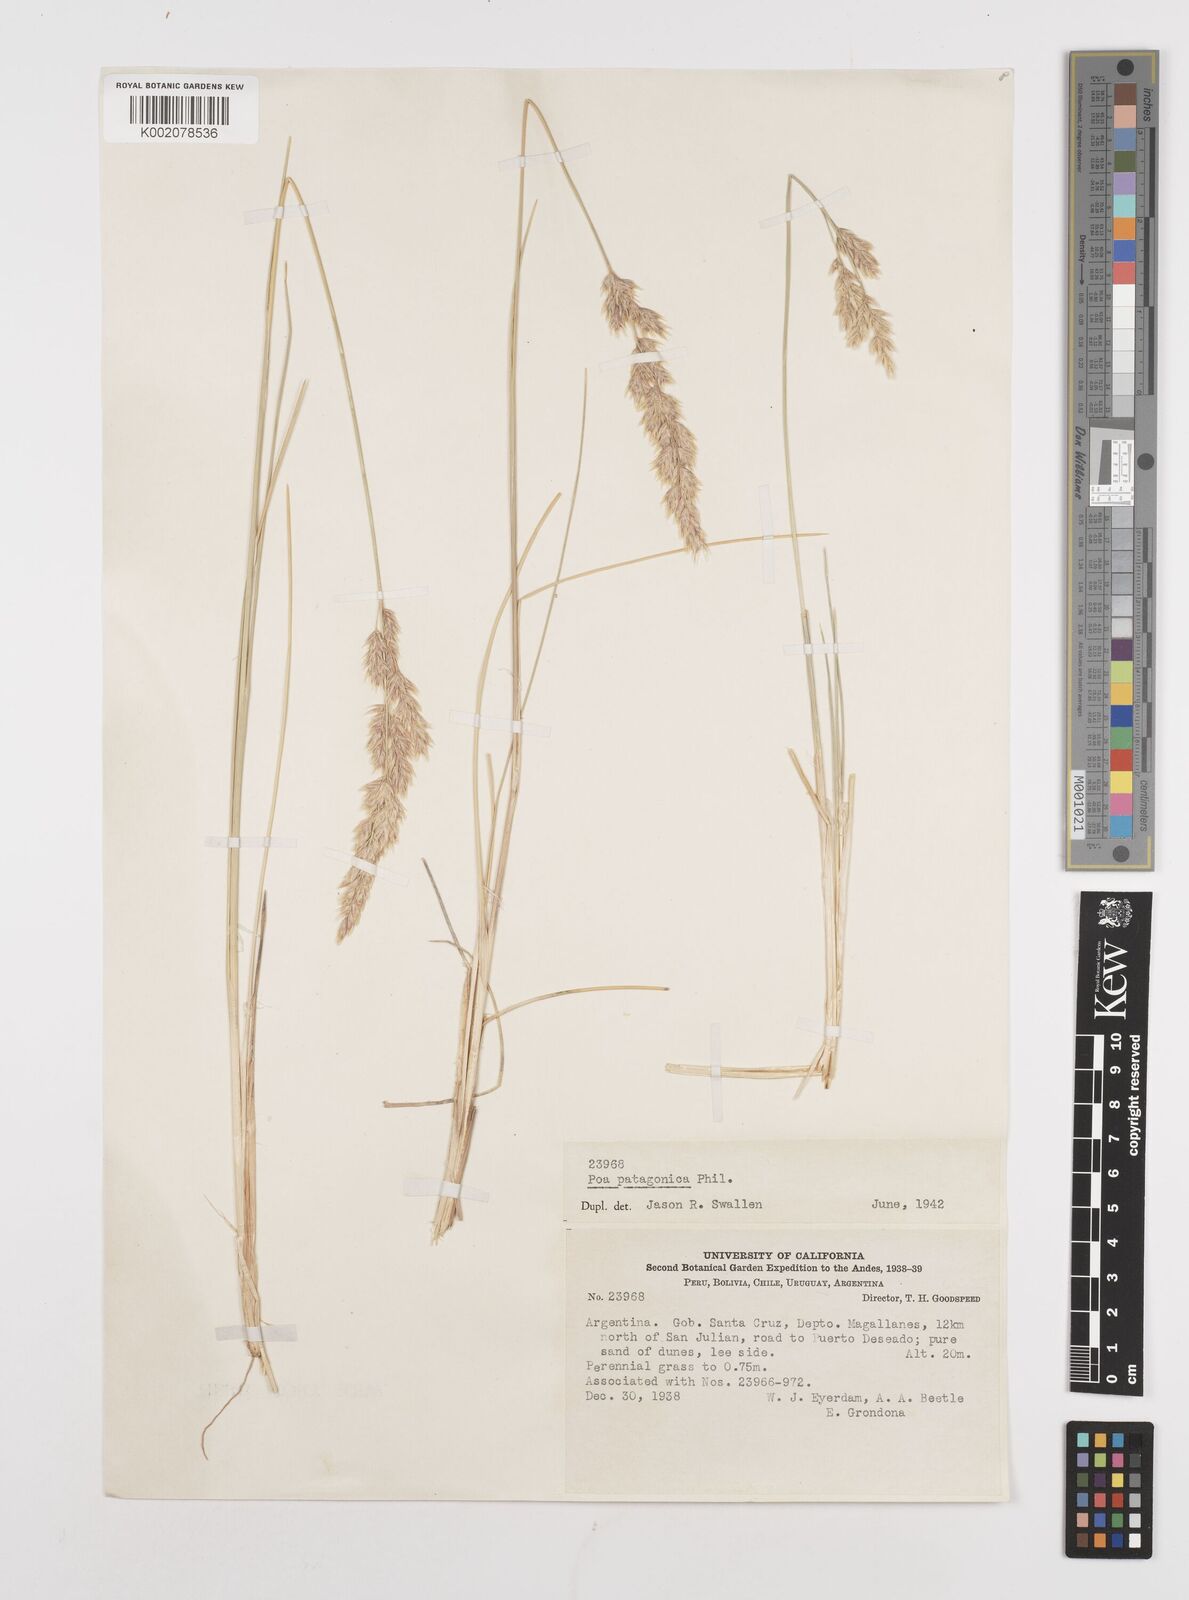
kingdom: Plantae
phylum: Tracheophyta
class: Liliopsida
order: Poales
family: Poaceae
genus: Poa
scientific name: Poa lanuginosa
